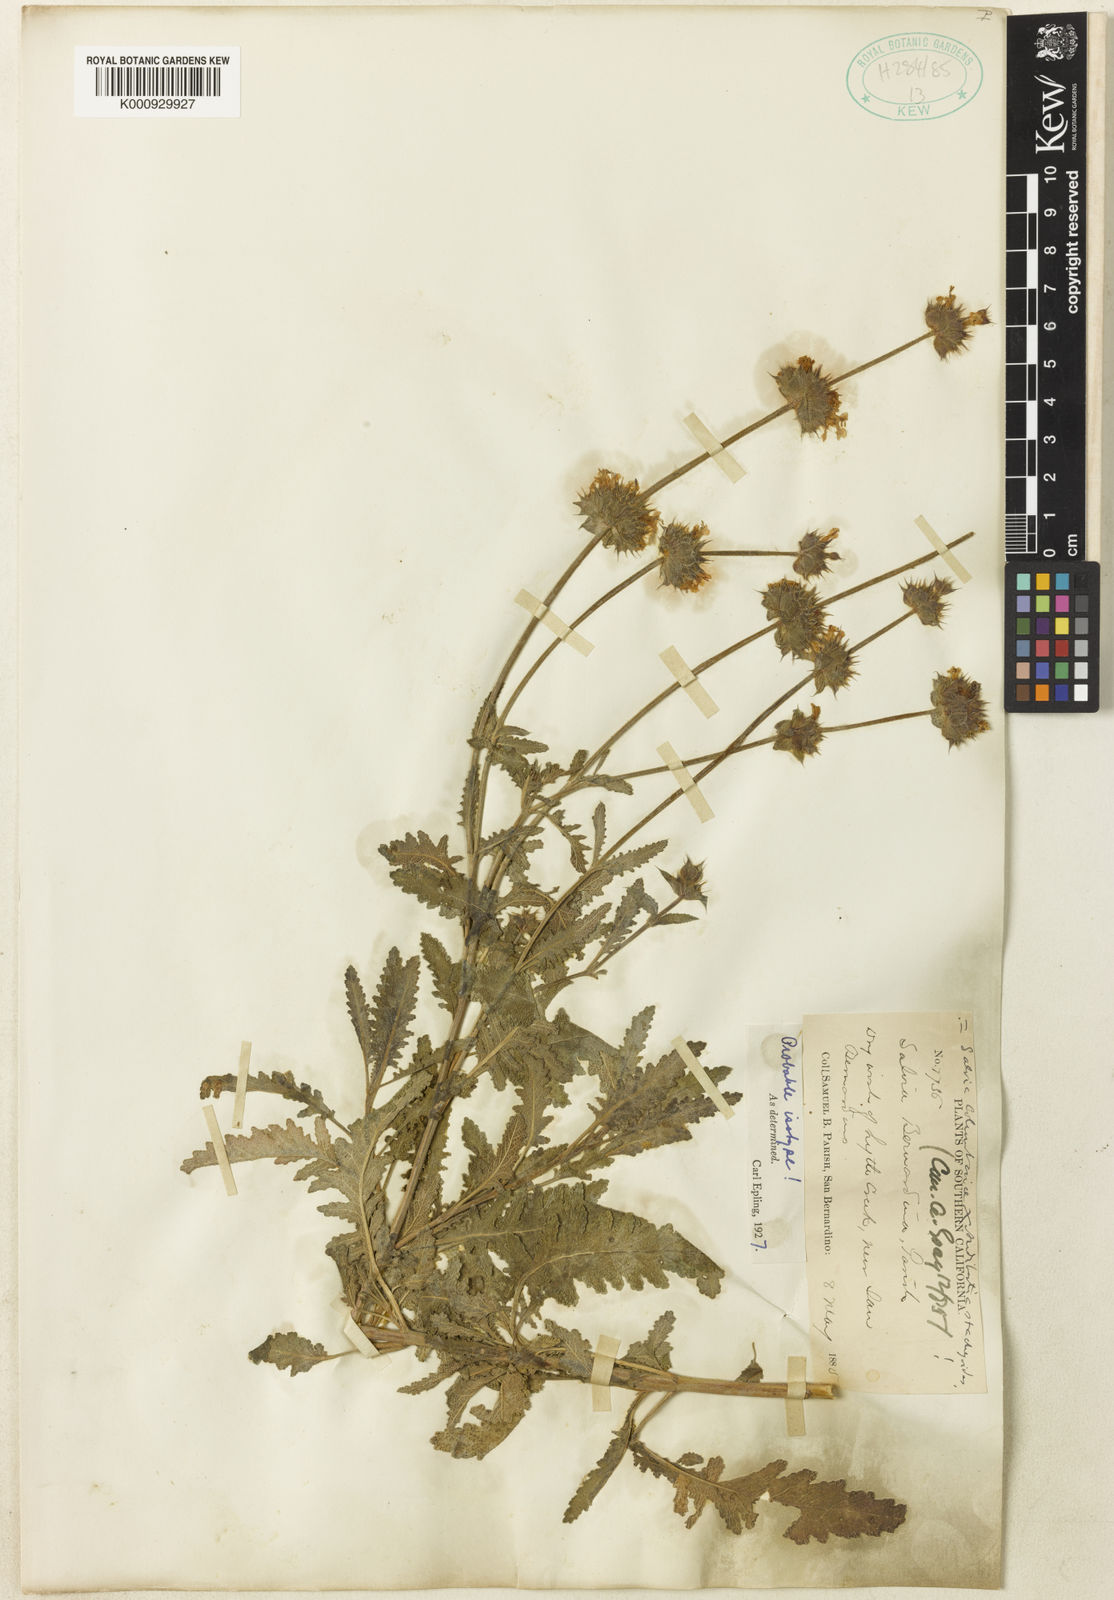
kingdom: Plantae
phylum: Tracheophyta
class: Magnoliopsida
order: Lamiales
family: Lamiaceae
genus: Salvia
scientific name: Salvia columbariae
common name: Chia
